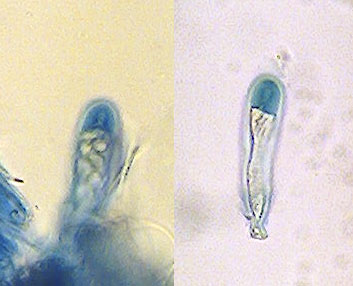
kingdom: Fungi
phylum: Ascomycota
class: Lecanoromycetes
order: Lecanorales
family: Lecanoraceae
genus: Lecidella
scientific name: Lecidella stigmatea
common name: kalkstens-skivelav
